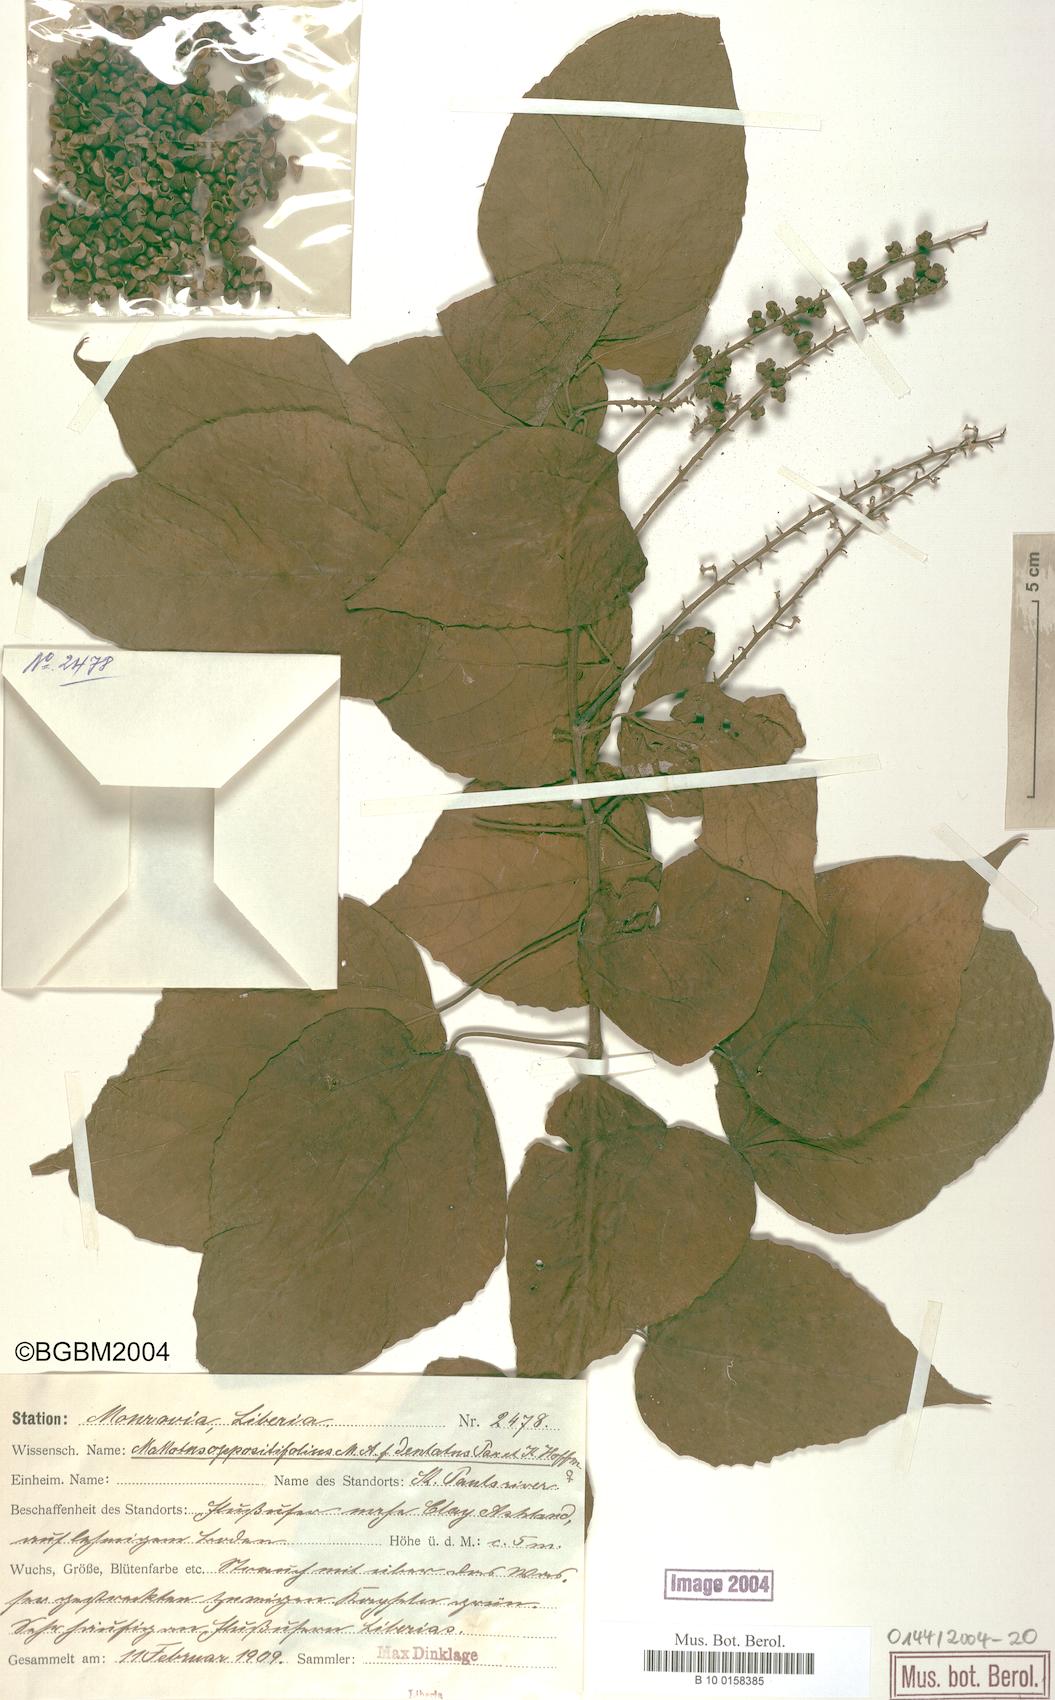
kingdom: Plantae
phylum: Tracheophyta
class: Magnoliopsida
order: Malpighiales
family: Euphorbiaceae
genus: Mallotus
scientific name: Mallotus oppositifolius
